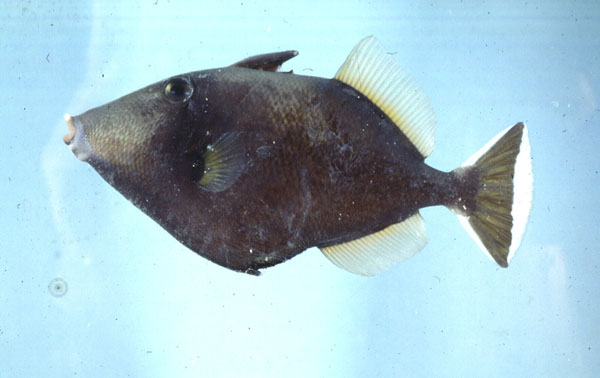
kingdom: Animalia
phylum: Chordata
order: Tetraodontiformes
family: Balistidae
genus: Sufflamen
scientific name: Sufflamen chrysopterum
